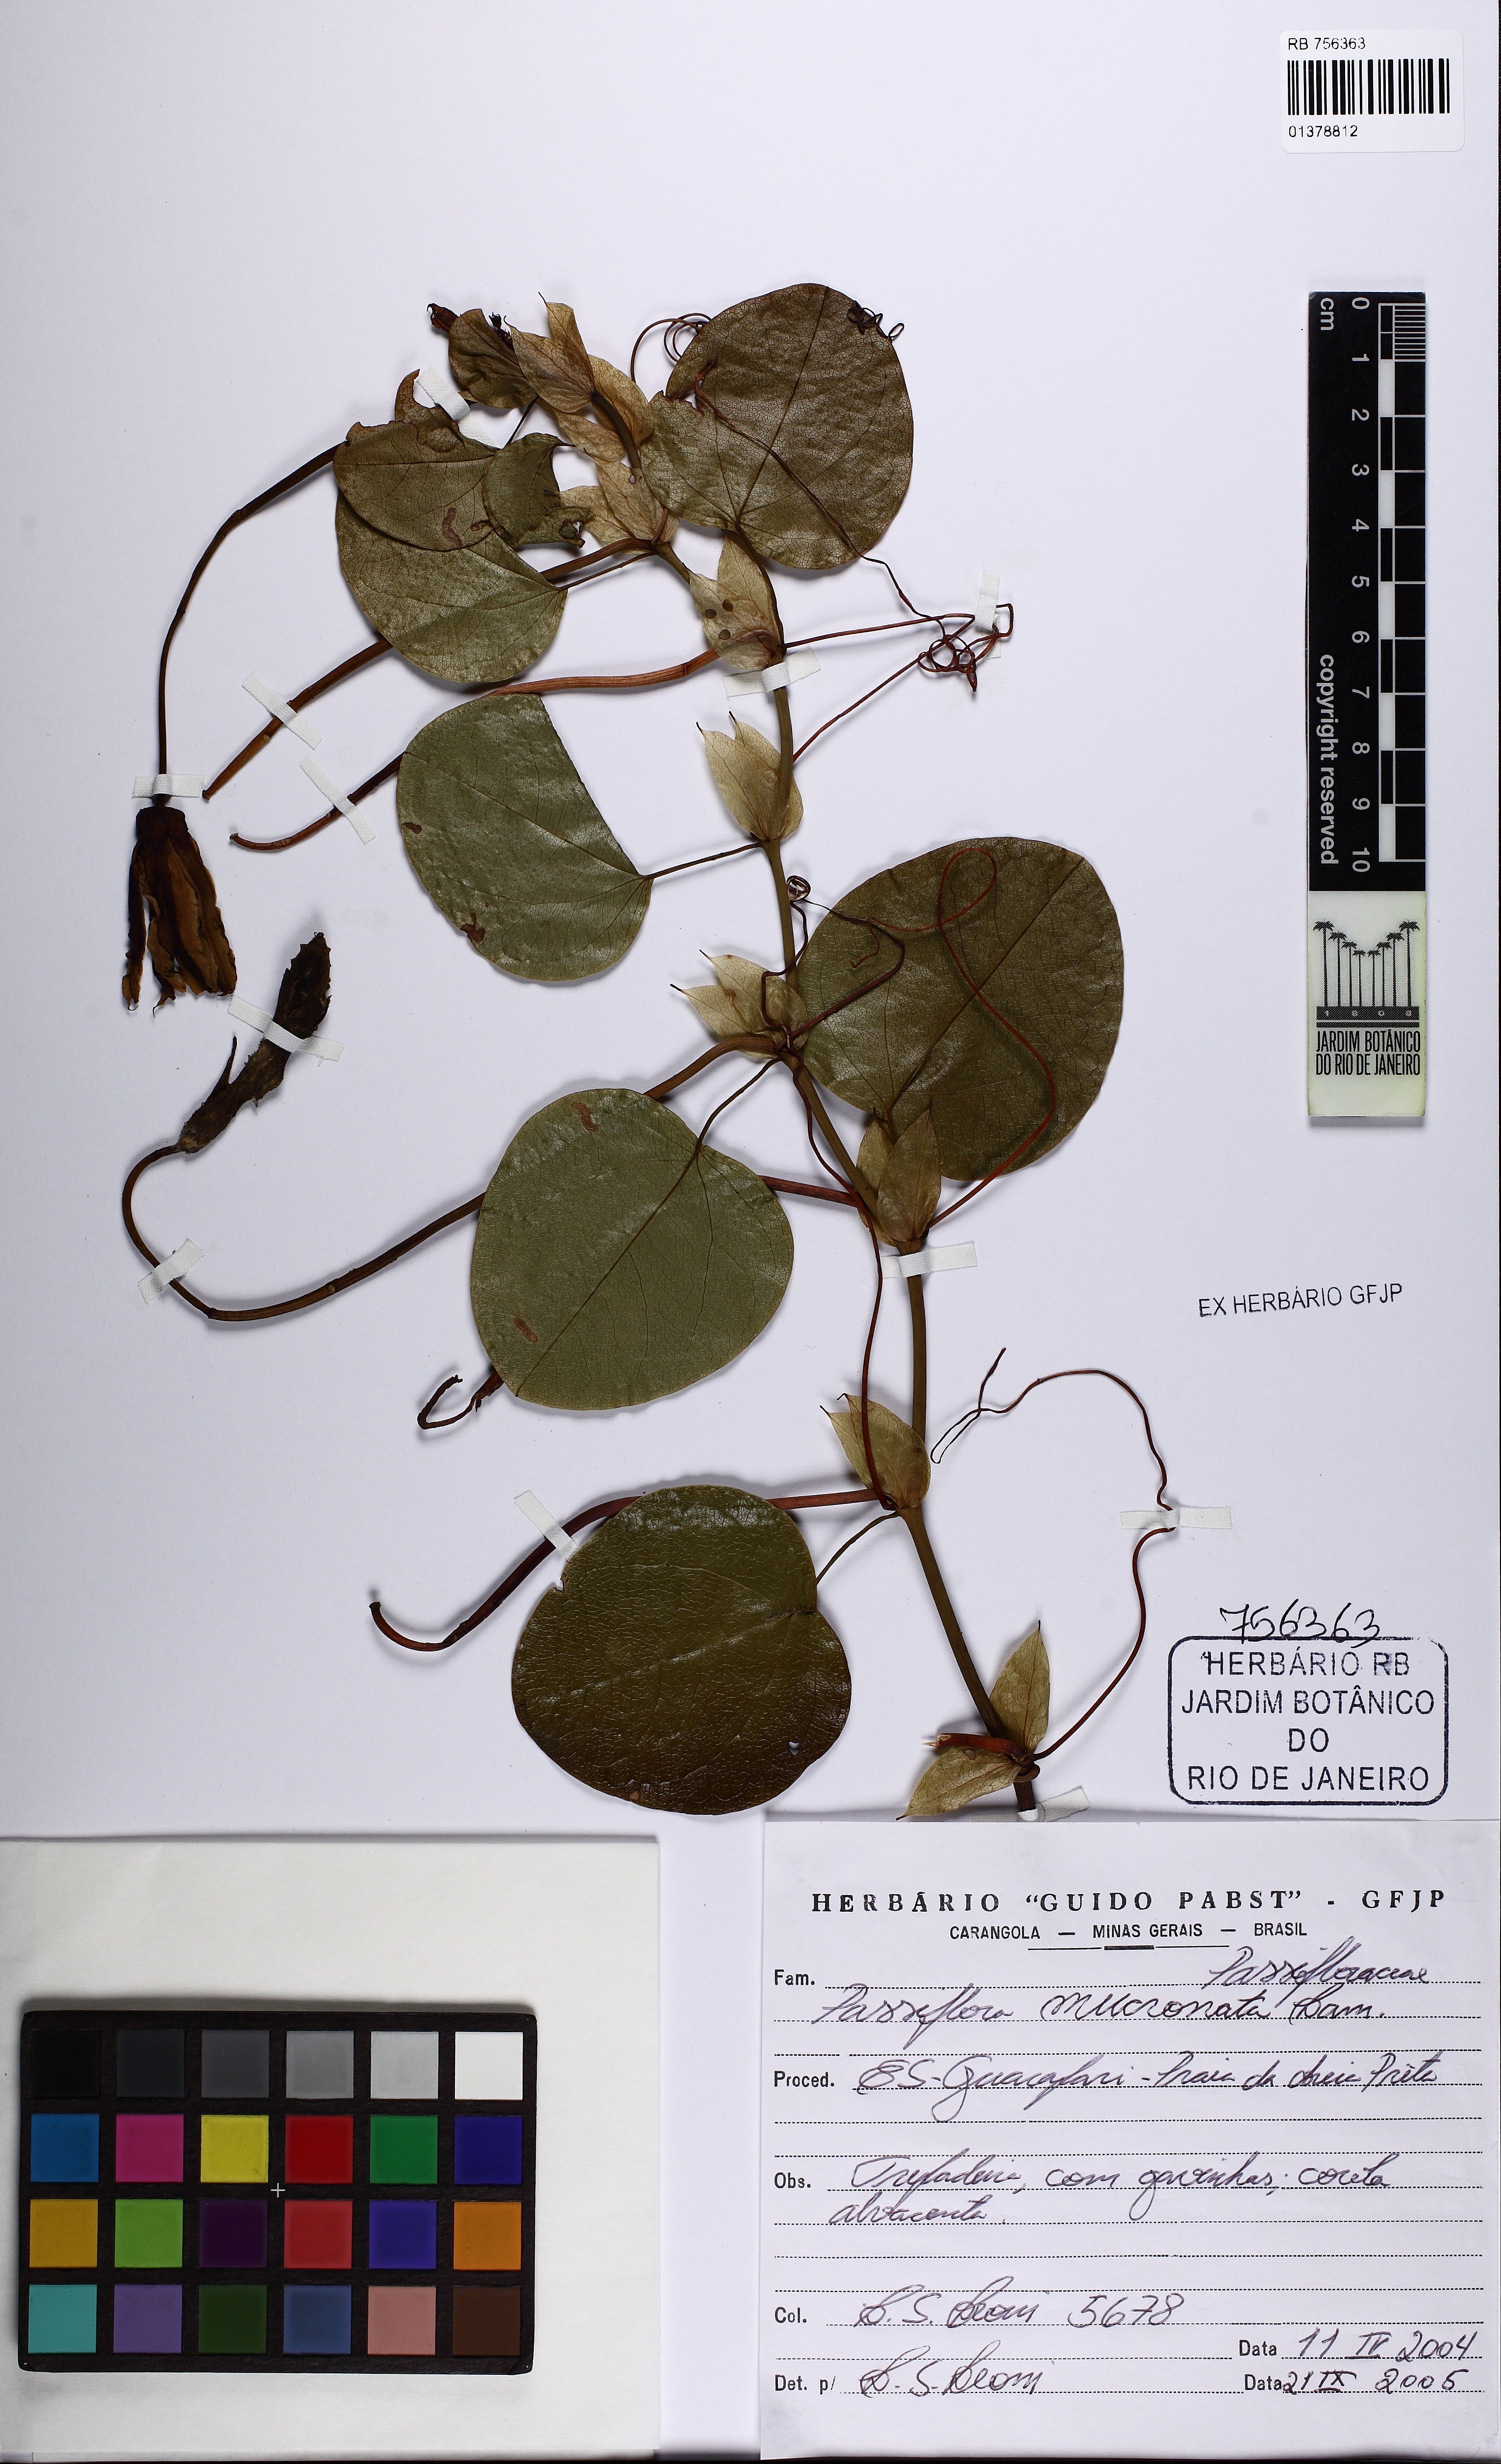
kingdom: Plantae
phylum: Tracheophyta
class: Magnoliopsida
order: Malpighiales
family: Passifloraceae
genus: Passiflora
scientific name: Passiflora mucronata
